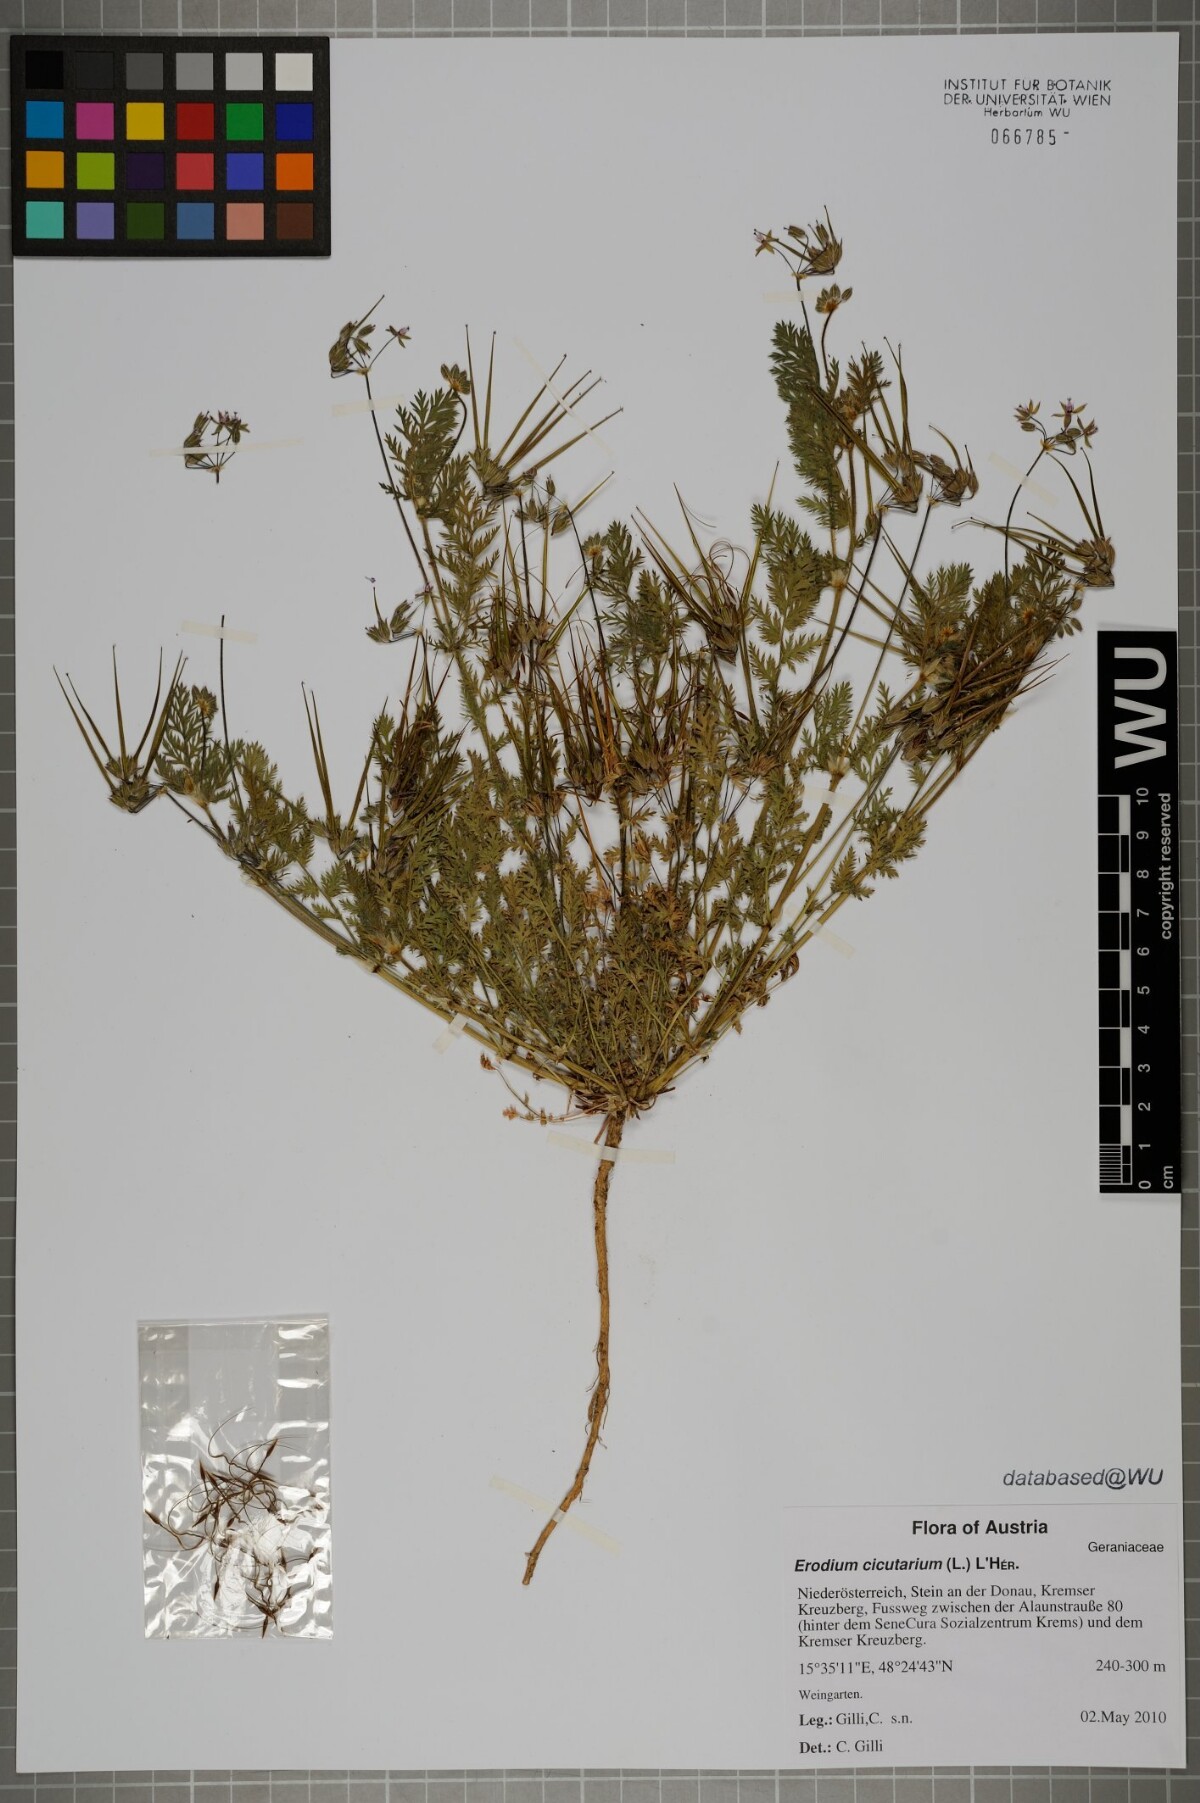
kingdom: Plantae
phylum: Tracheophyta
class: Magnoliopsida
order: Geraniales
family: Geraniaceae
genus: Erodium
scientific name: Erodium cicutarium
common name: Common stork's-bill
